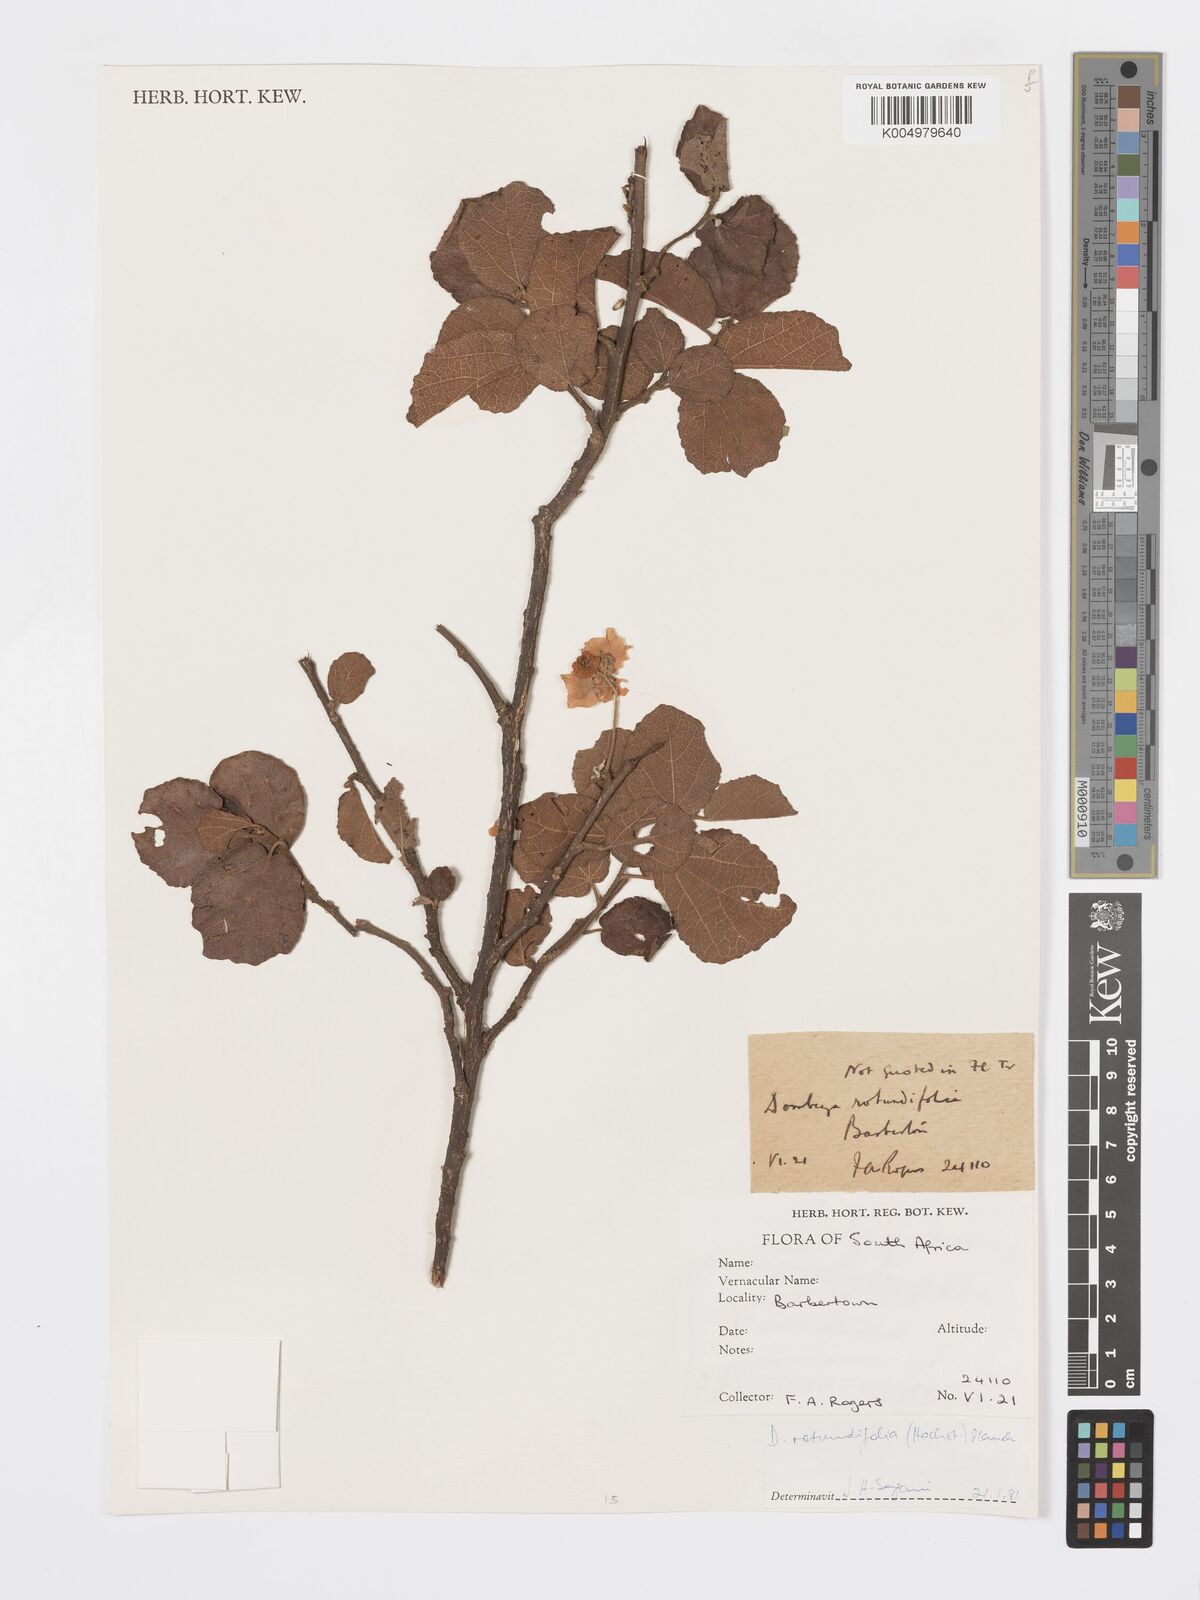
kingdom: Plantae
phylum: Tracheophyta
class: Magnoliopsida
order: Malvales
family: Malvaceae
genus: Dombeya
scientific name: Dombeya rotundifolia
